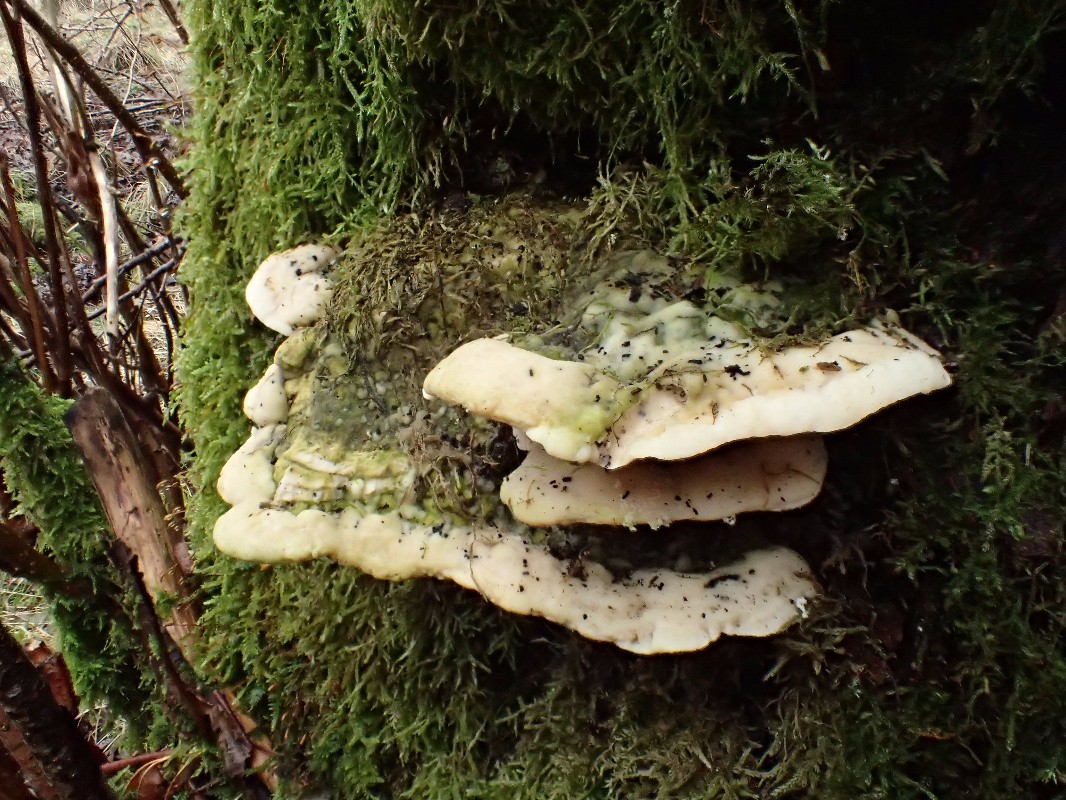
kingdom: Fungi
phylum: Basidiomycota
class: Agaricomycetes
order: Hymenochaetales
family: Oxyporaceae
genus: Oxyporus
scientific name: Oxyporus populinus
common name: sammenvokset trylleporesvamp
